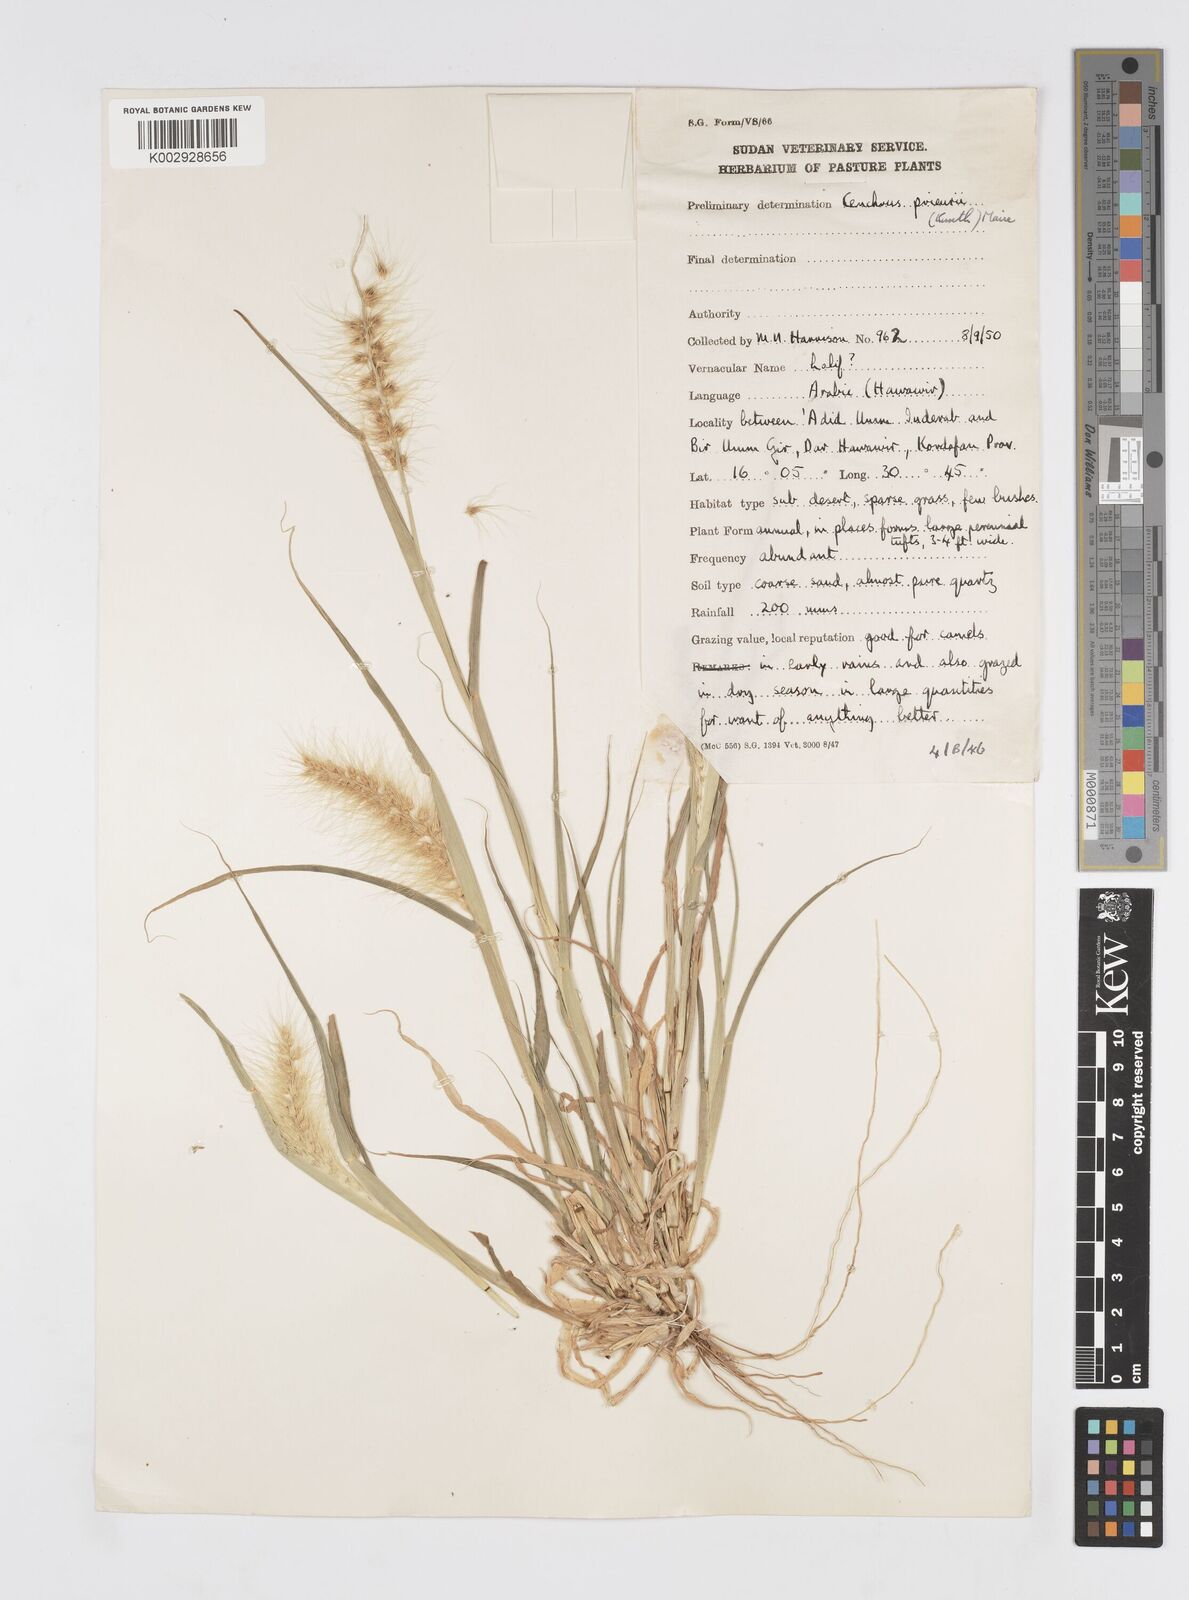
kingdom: Plantae
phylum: Tracheophyta
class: Liliopsida
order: Poales
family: Poaceae
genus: Cenchrus
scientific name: Cenchrus prieurii
